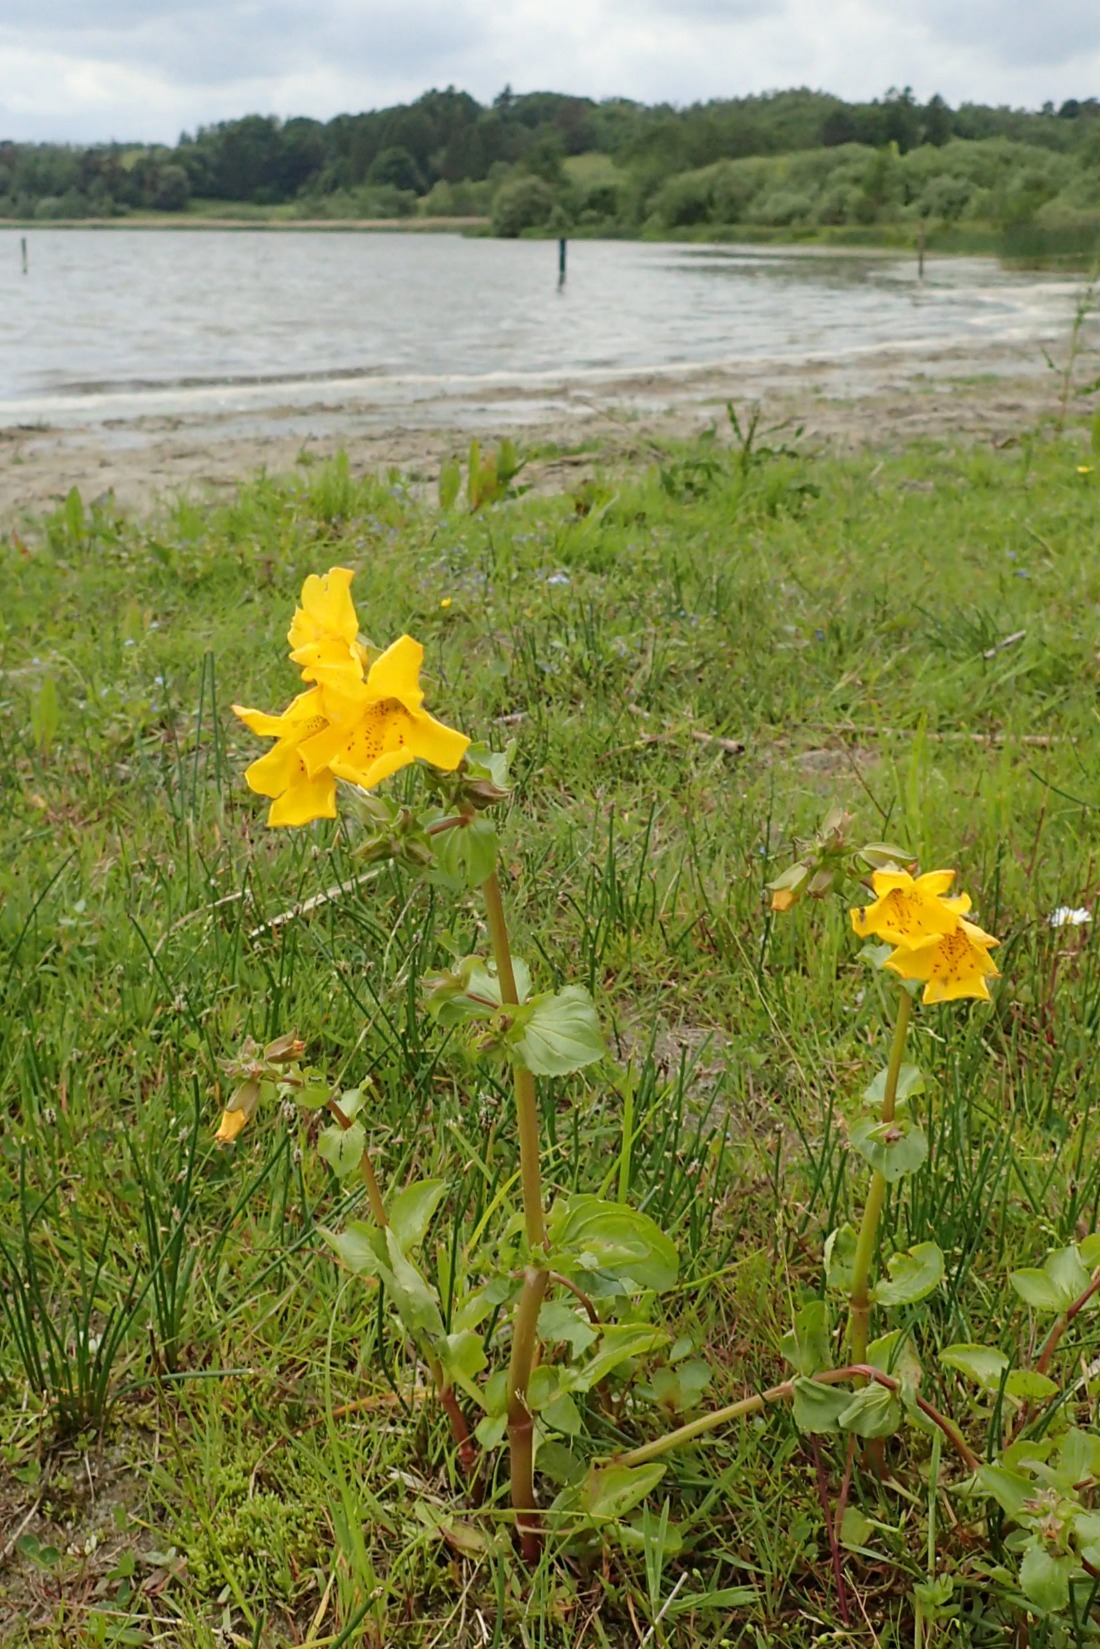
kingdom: Plantae
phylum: Tracheophyta
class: Magnoliopsida
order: Lamiales
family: Phrymaceae
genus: Erythranthe
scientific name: Erythranthe guttata
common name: Abeblomst
